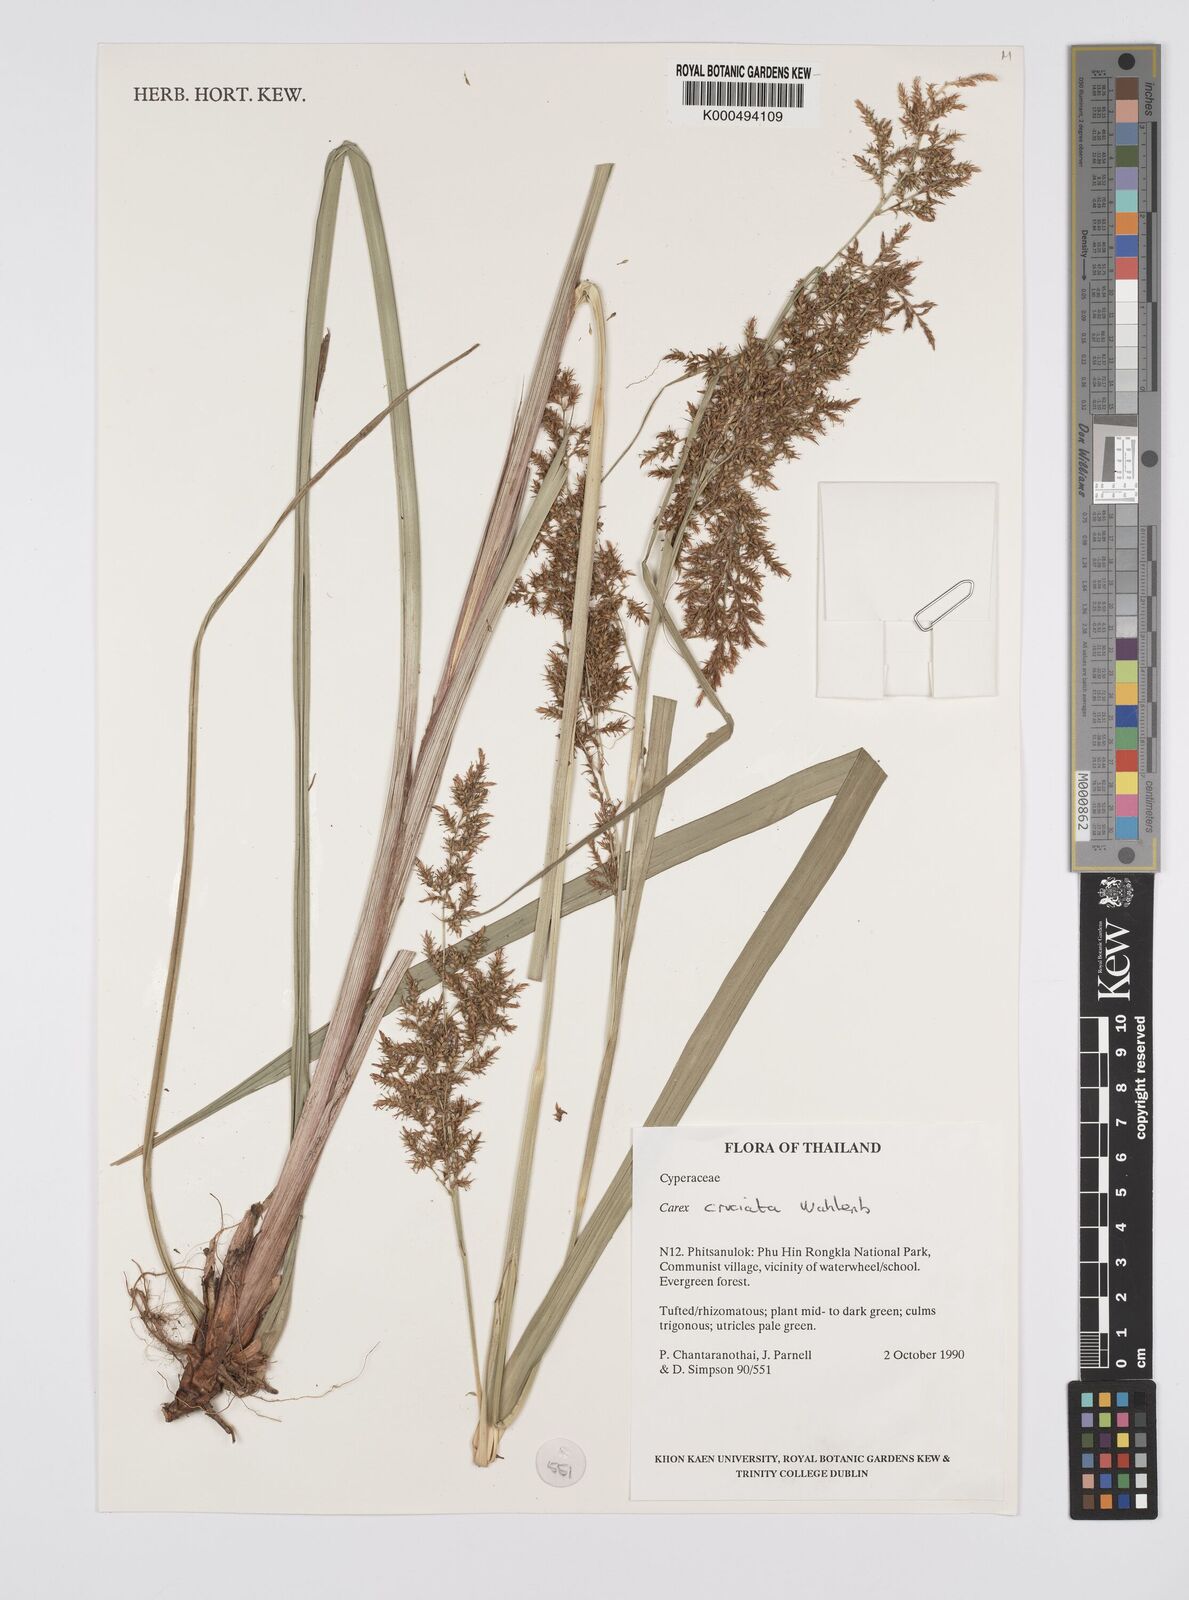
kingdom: Plantae
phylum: Tracheophyta
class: Liliopsida
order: Poales
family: Cyperaceae
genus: Carex
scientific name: Carex cruciata
